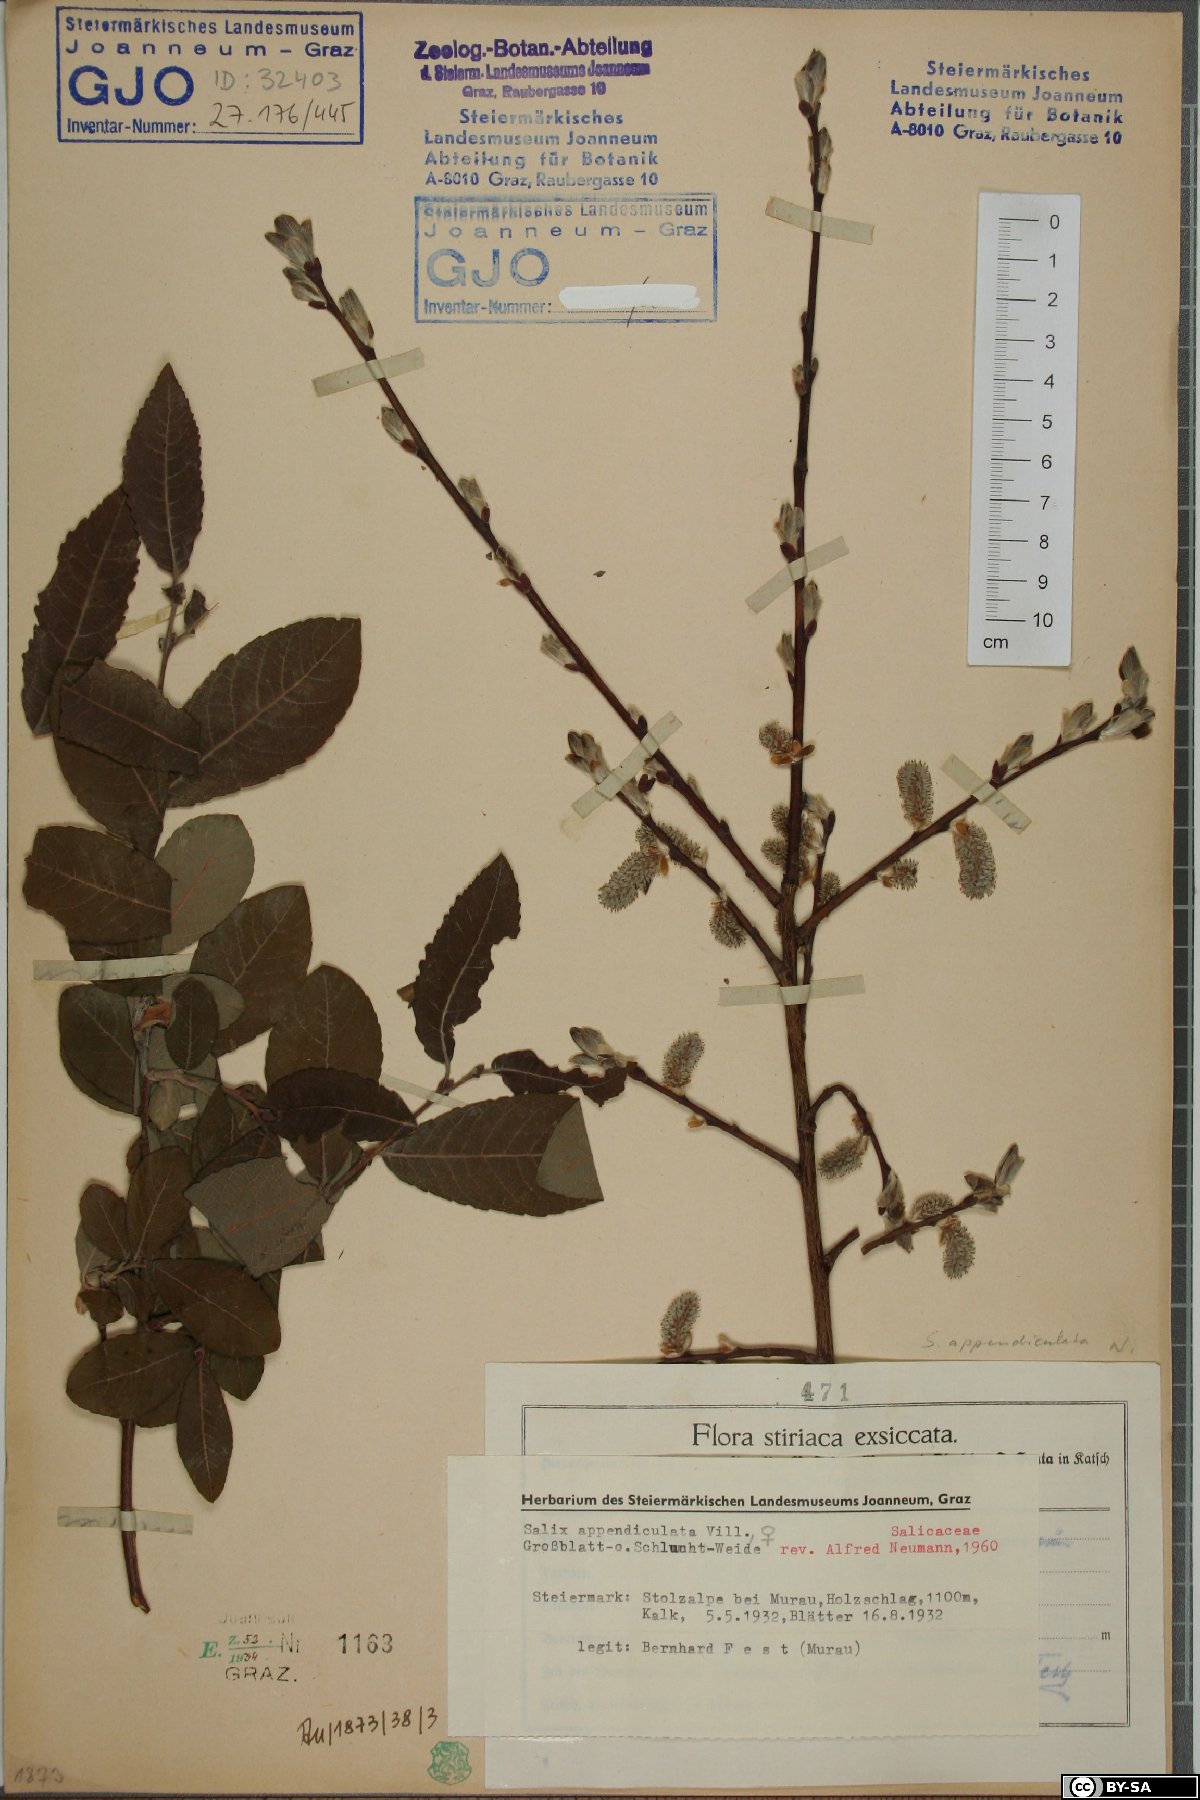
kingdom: Plantae
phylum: Tracheophyta
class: Magnoliopsida
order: Malpighiales
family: Salicaceae
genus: Salix
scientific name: Salix appendiculata
